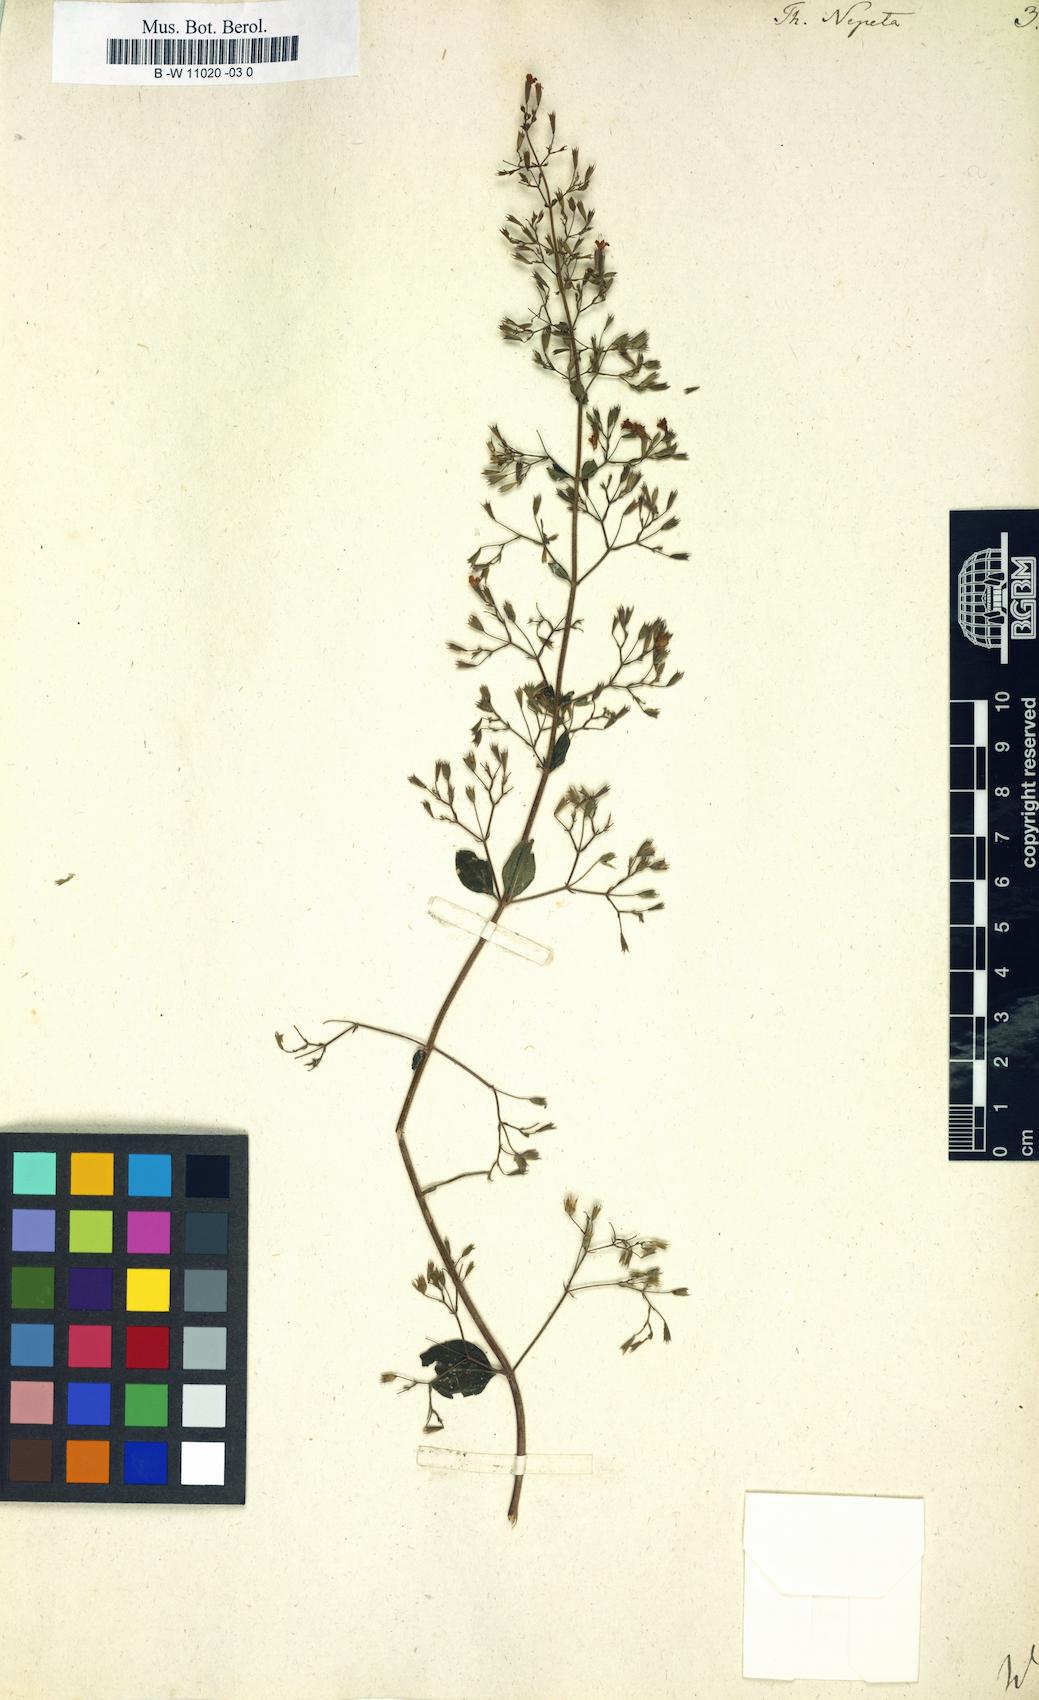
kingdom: Plantae
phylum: Tracheophyta
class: Magnoliopsida
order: Lamiales
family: Lamiaceae
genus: Clinopodium
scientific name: Clinopodium nepeta
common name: Lesser calamint
